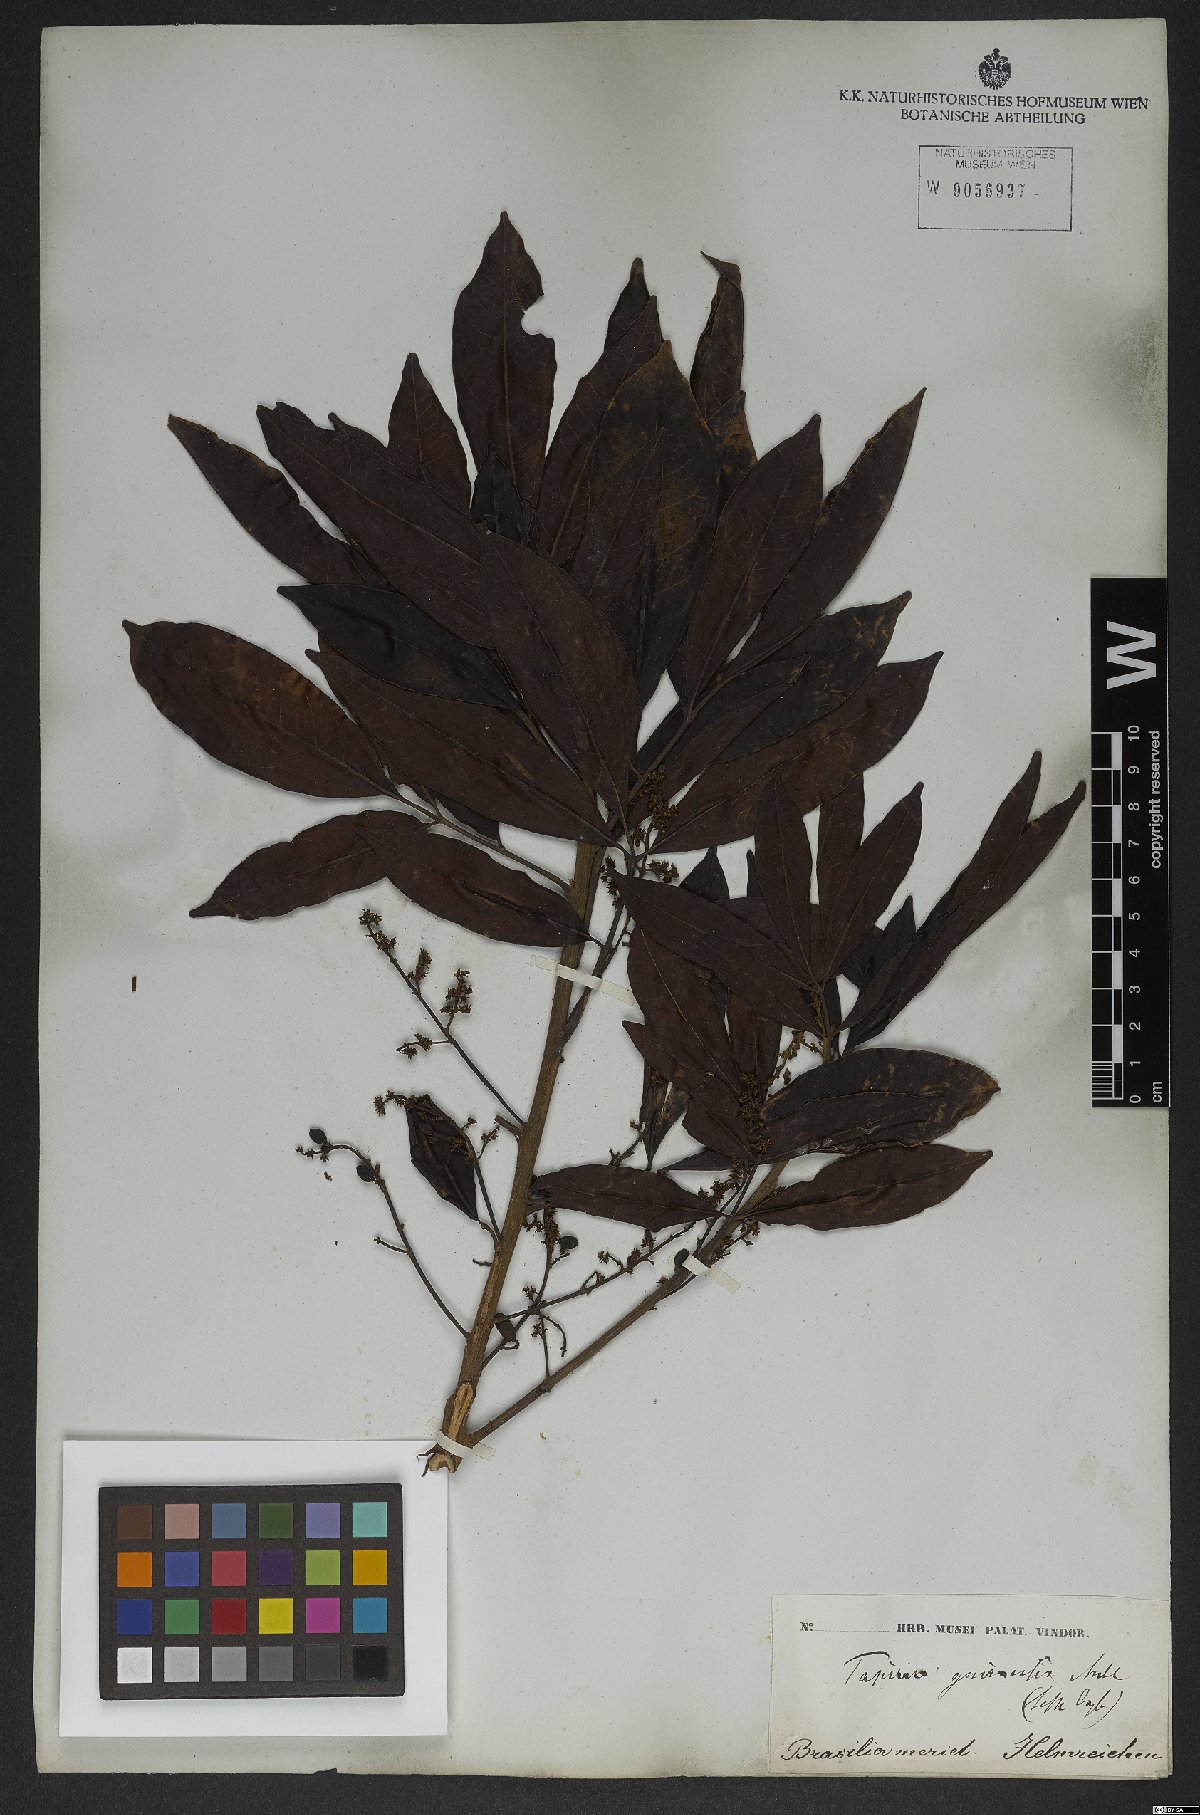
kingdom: Plantae
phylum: Tracheophyta
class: Magnoliopsida
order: Sapindales
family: Anacardiaceae
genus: Tapirira
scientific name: Tapirira guianensis
